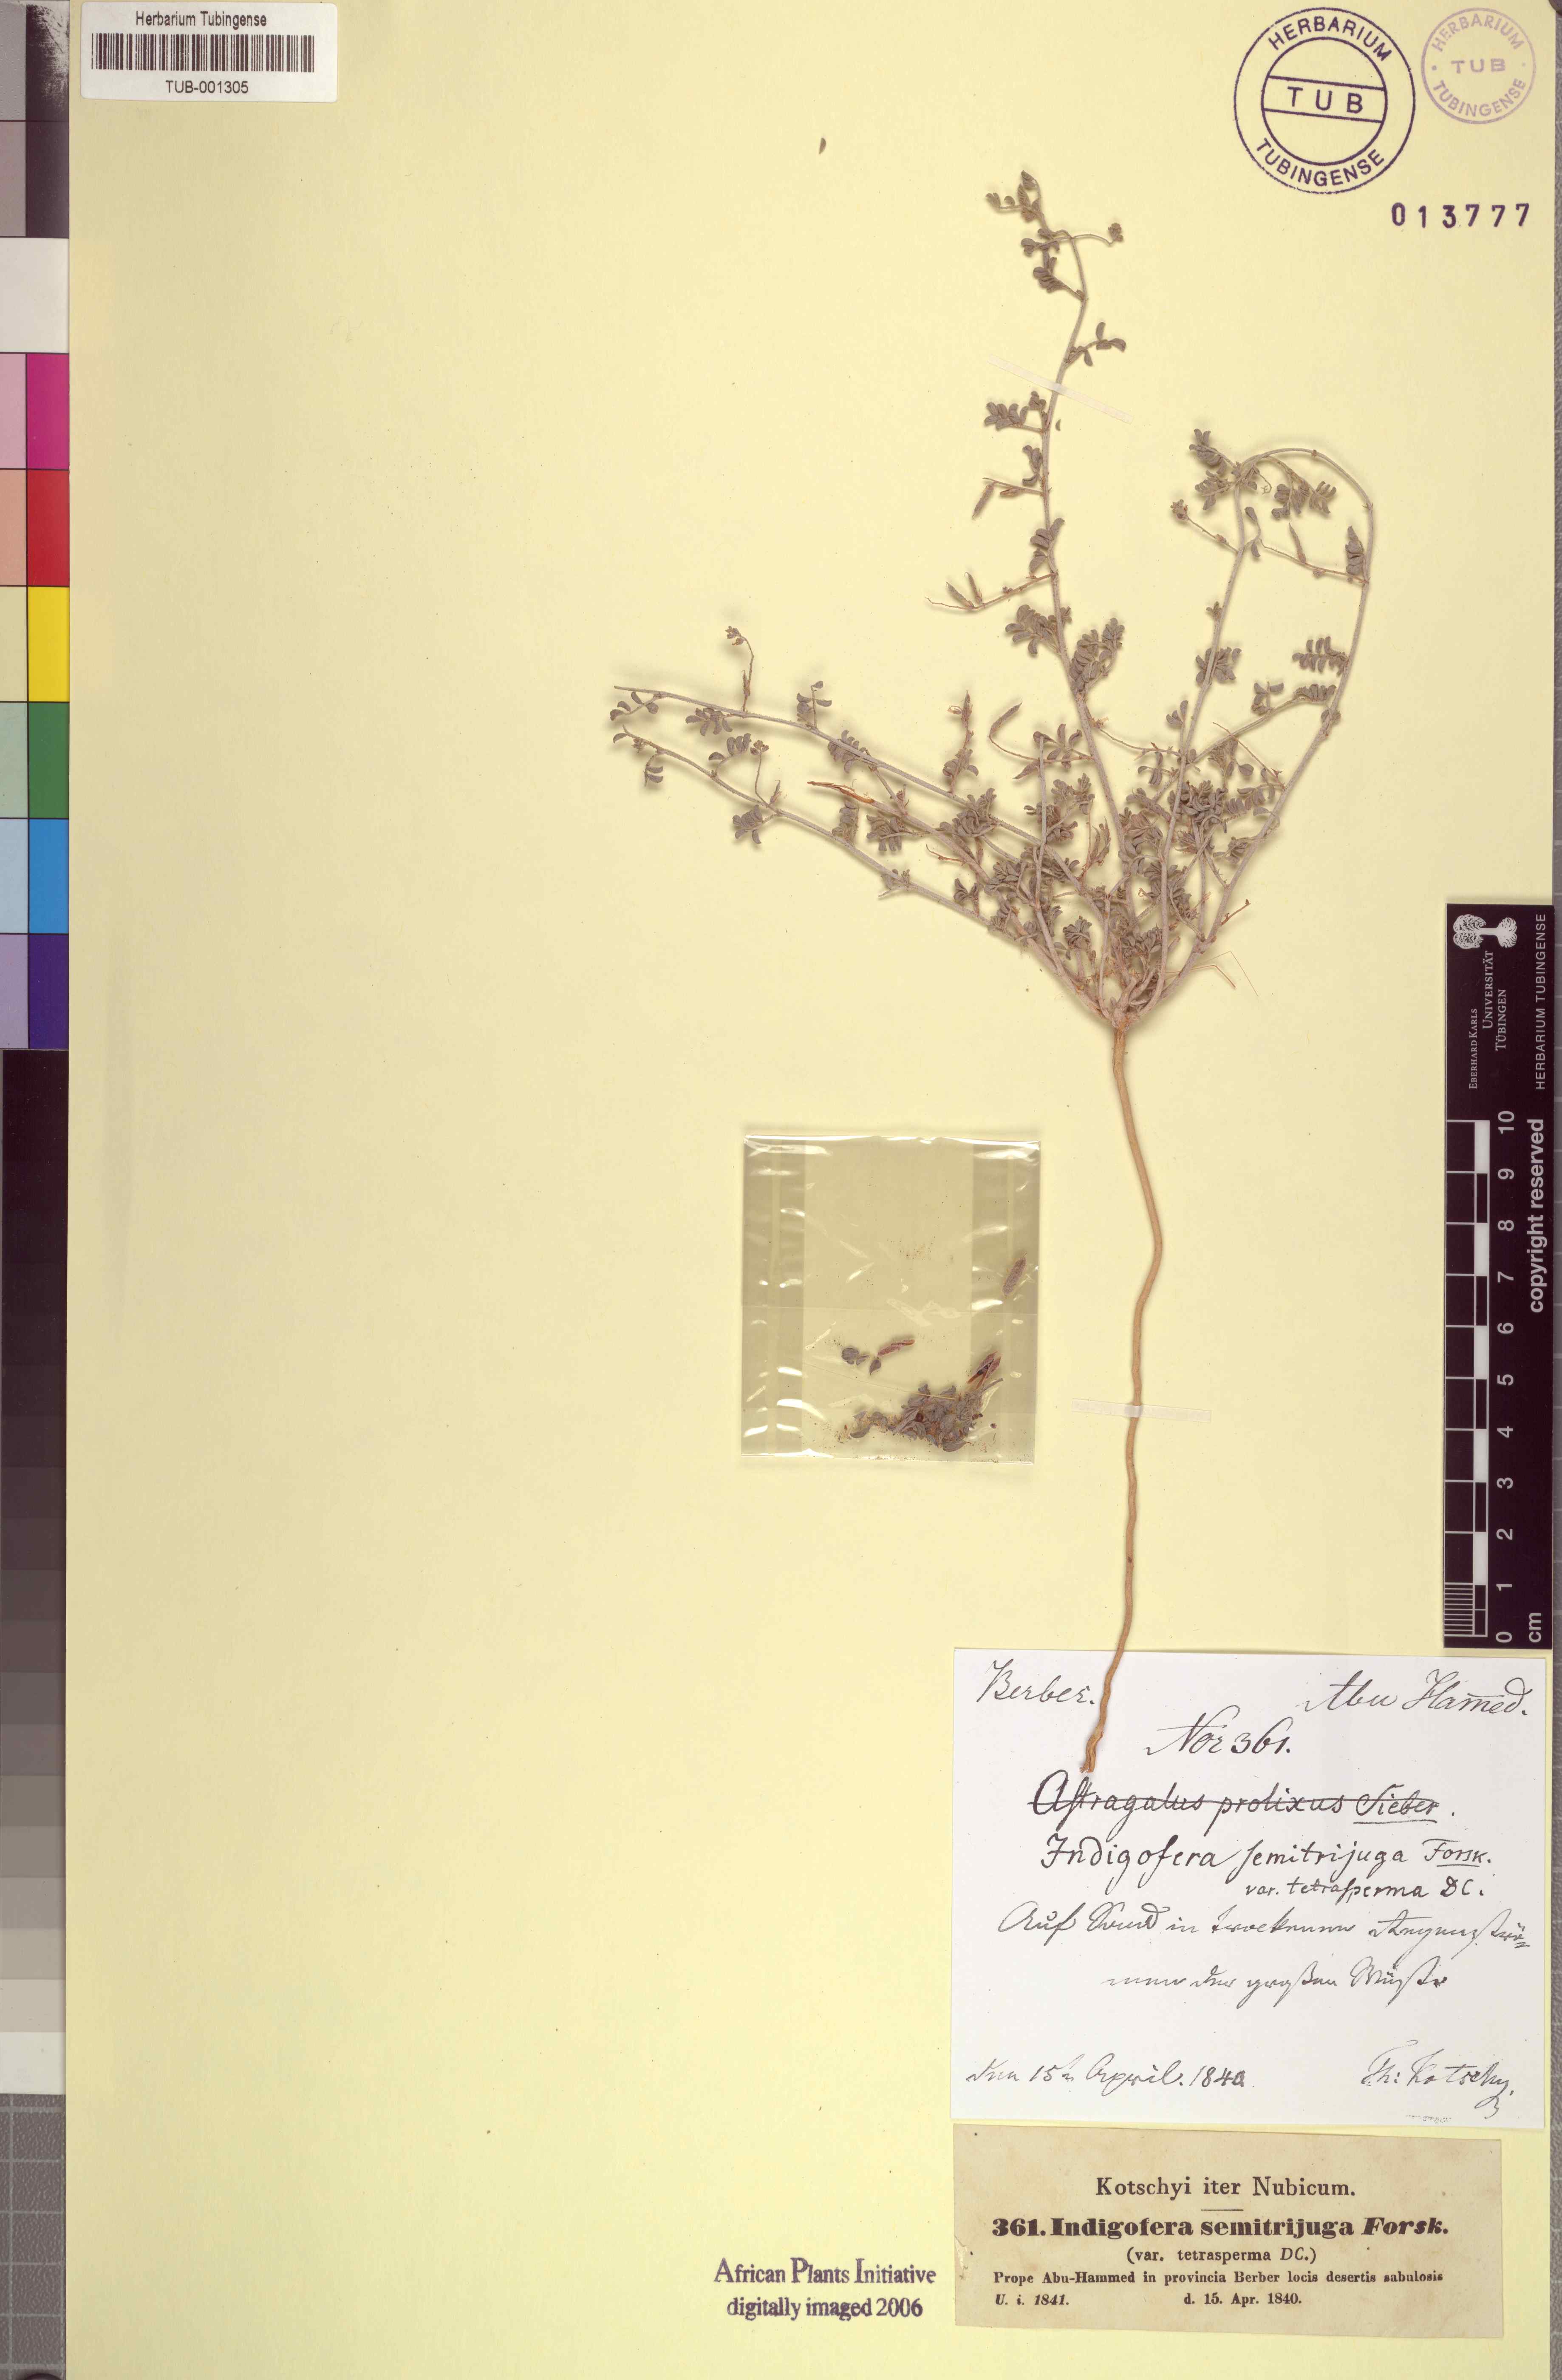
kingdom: Plantae
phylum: Tracheophyta
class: Magnoliopsida
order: Fabales
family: Fabaceae
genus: Indigofera
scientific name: Indigofera semitrijuga
